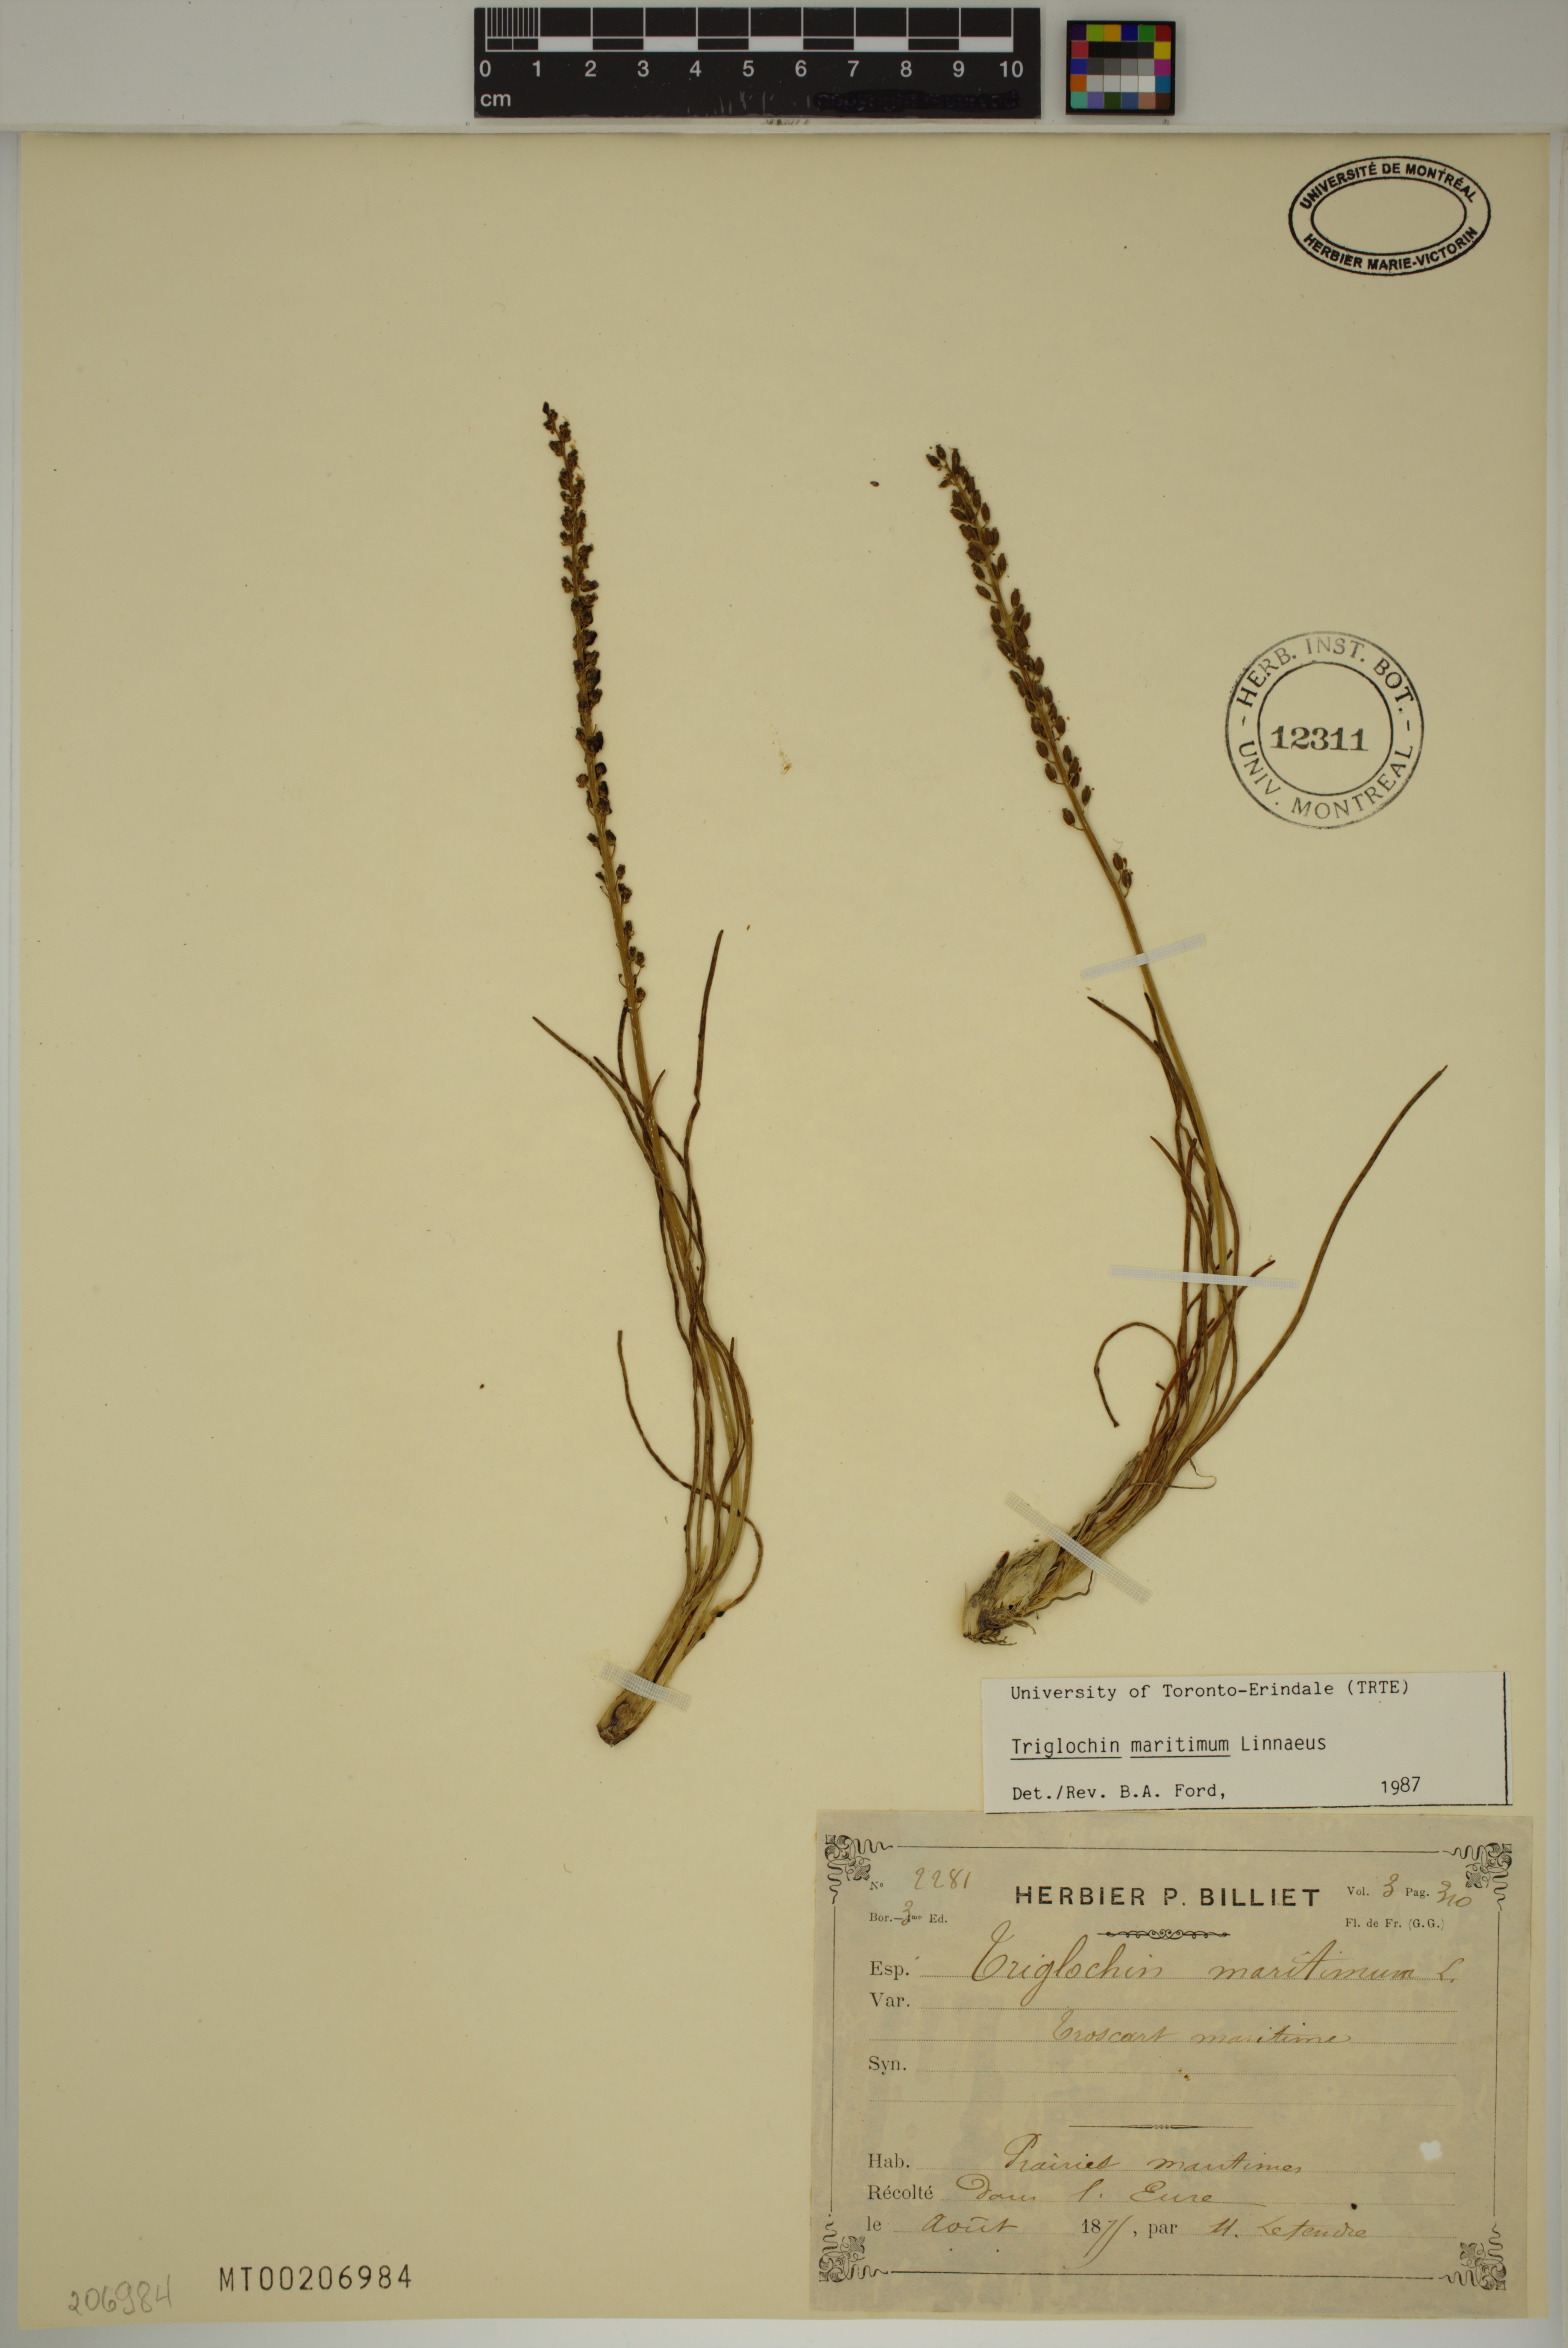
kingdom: Plantae
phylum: Tracheophyta
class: Liliopsida
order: Alismatales
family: Juncaginaceae
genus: Triglochin
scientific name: Triglochin maritima
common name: Sea arrowgrass
